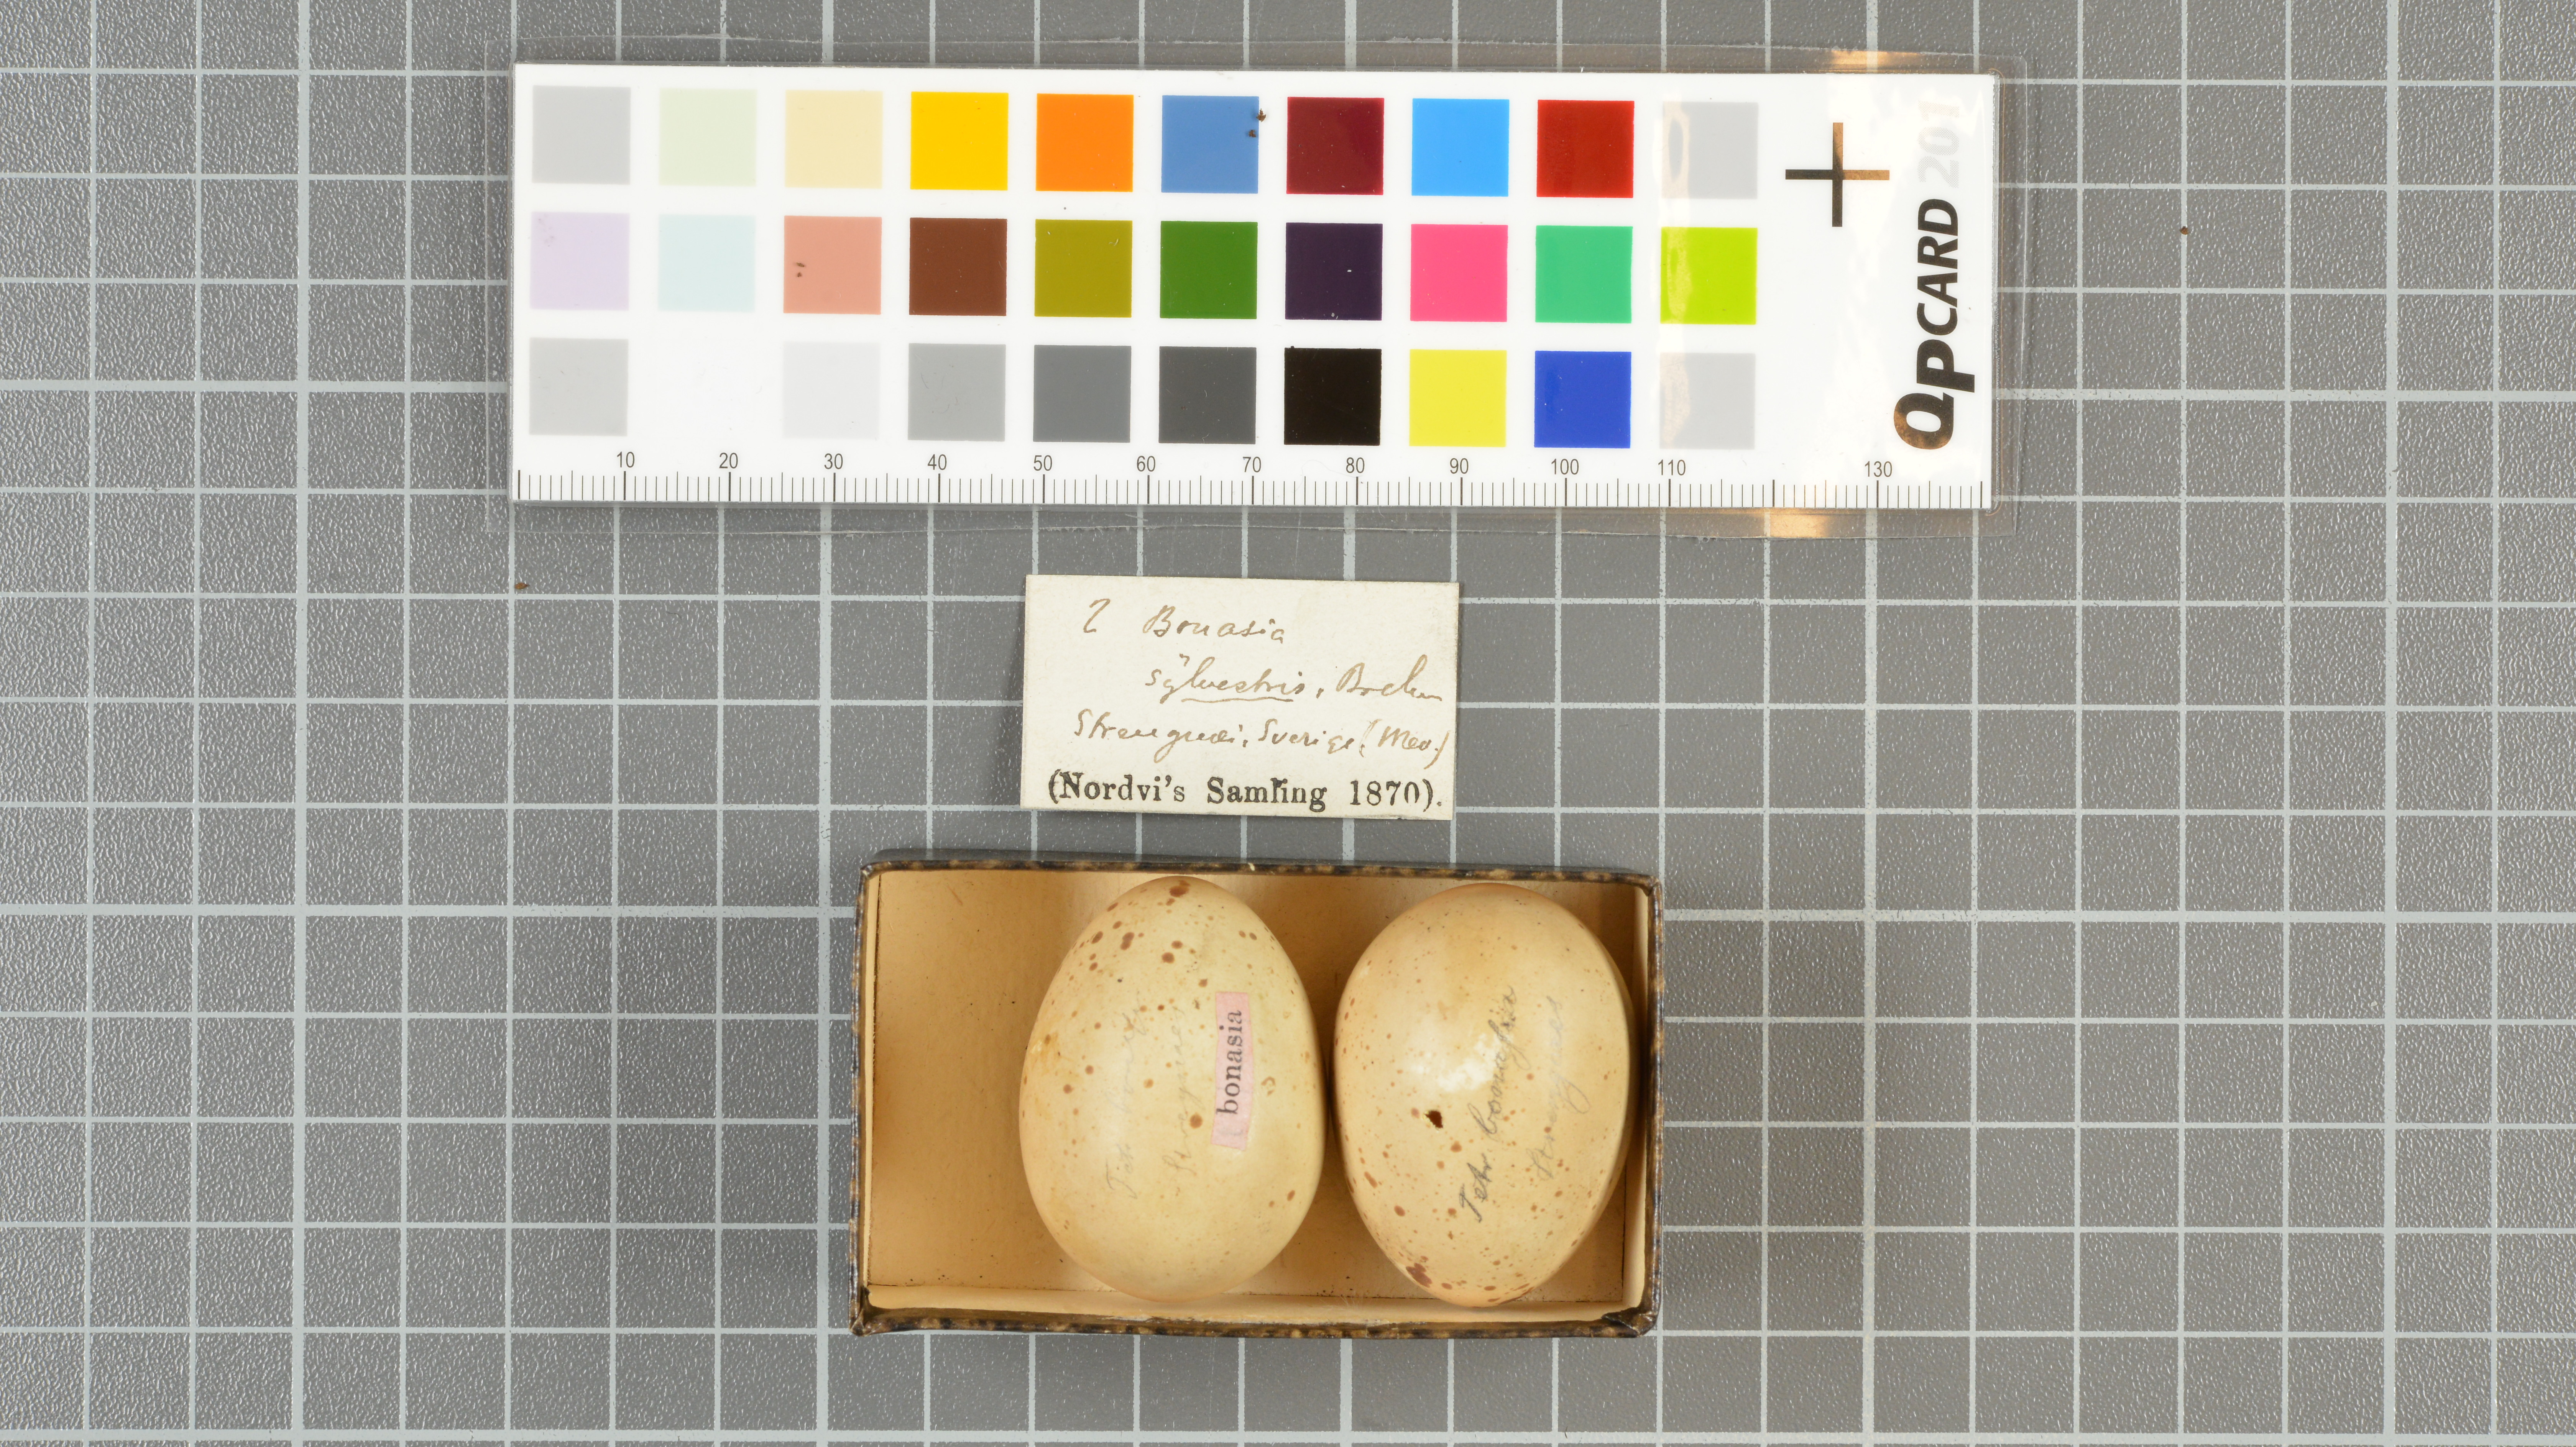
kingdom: Animalia
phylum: Chordata
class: Aves
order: Galliformes
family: Phasianidae
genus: Tetrastes
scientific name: Tetrastes bonasia
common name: Hazel grouse
